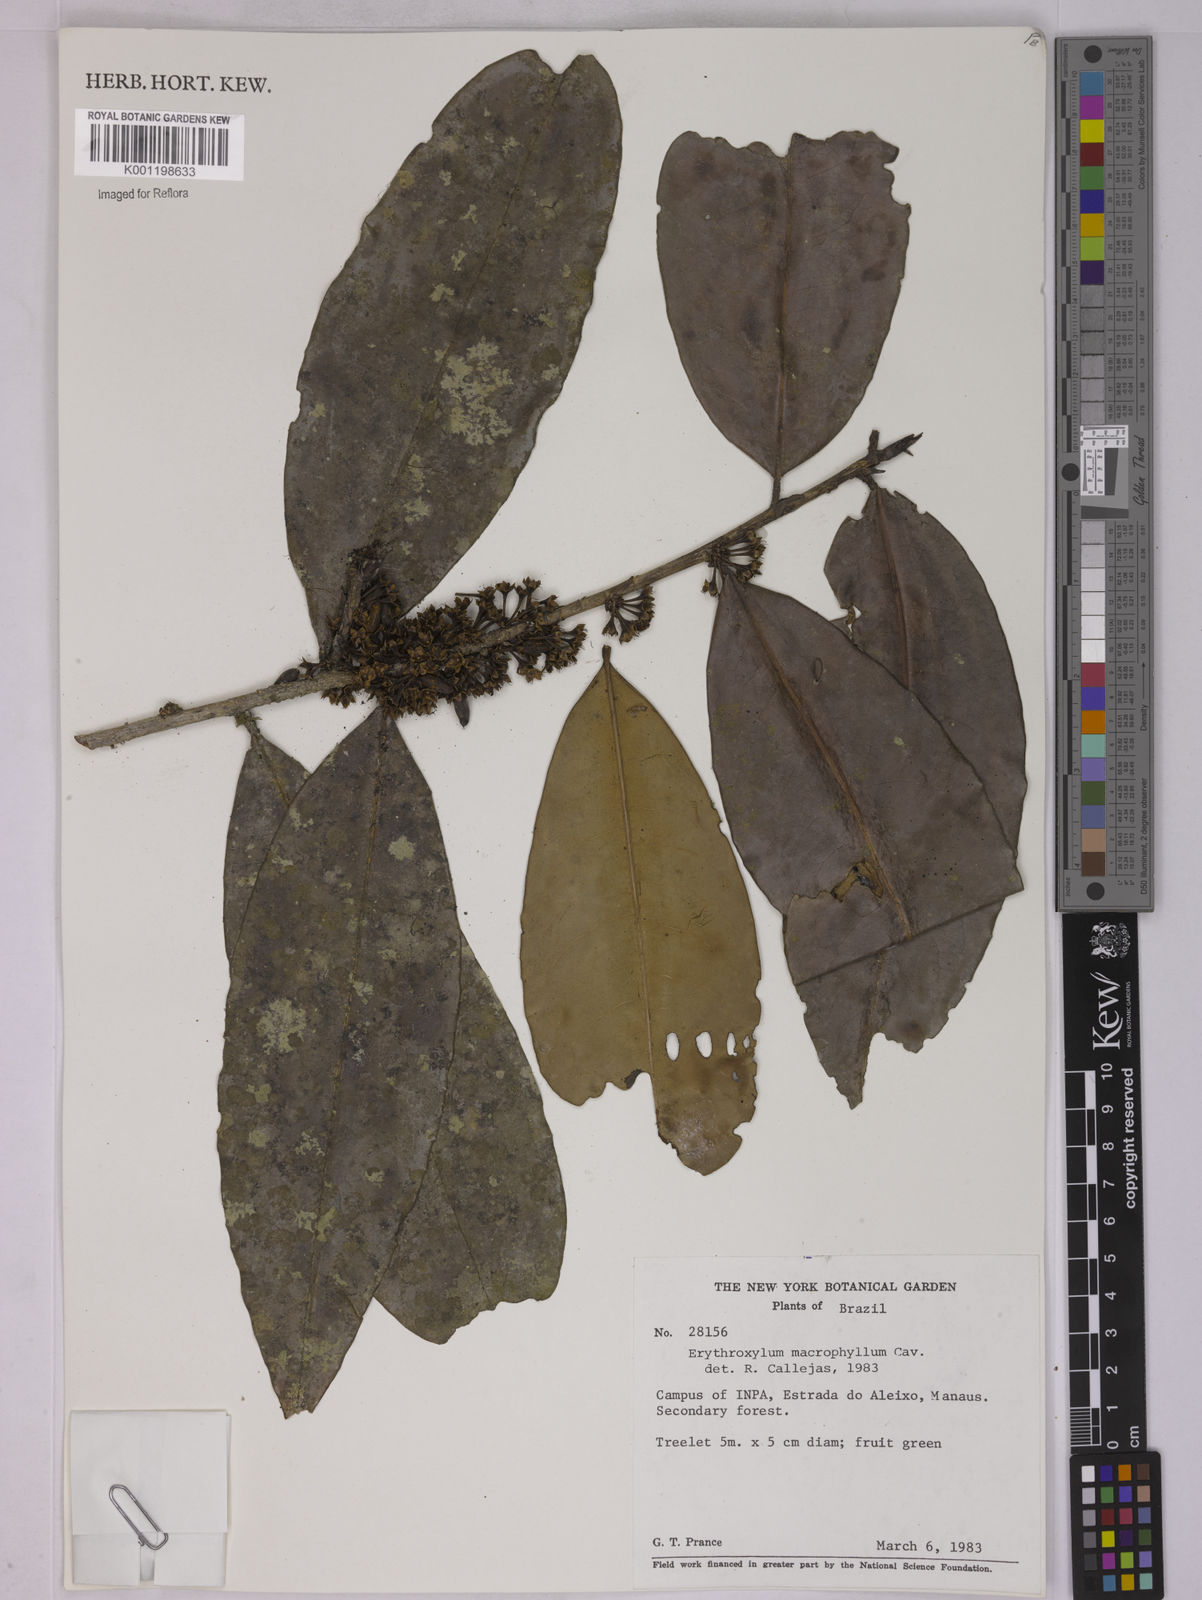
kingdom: Plantae
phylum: Tracheophyta
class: Magnoliopsida
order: Malpighiales
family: Erythroxylaceae
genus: Erythroxylum
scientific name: Erythroxylum macrophyllum
